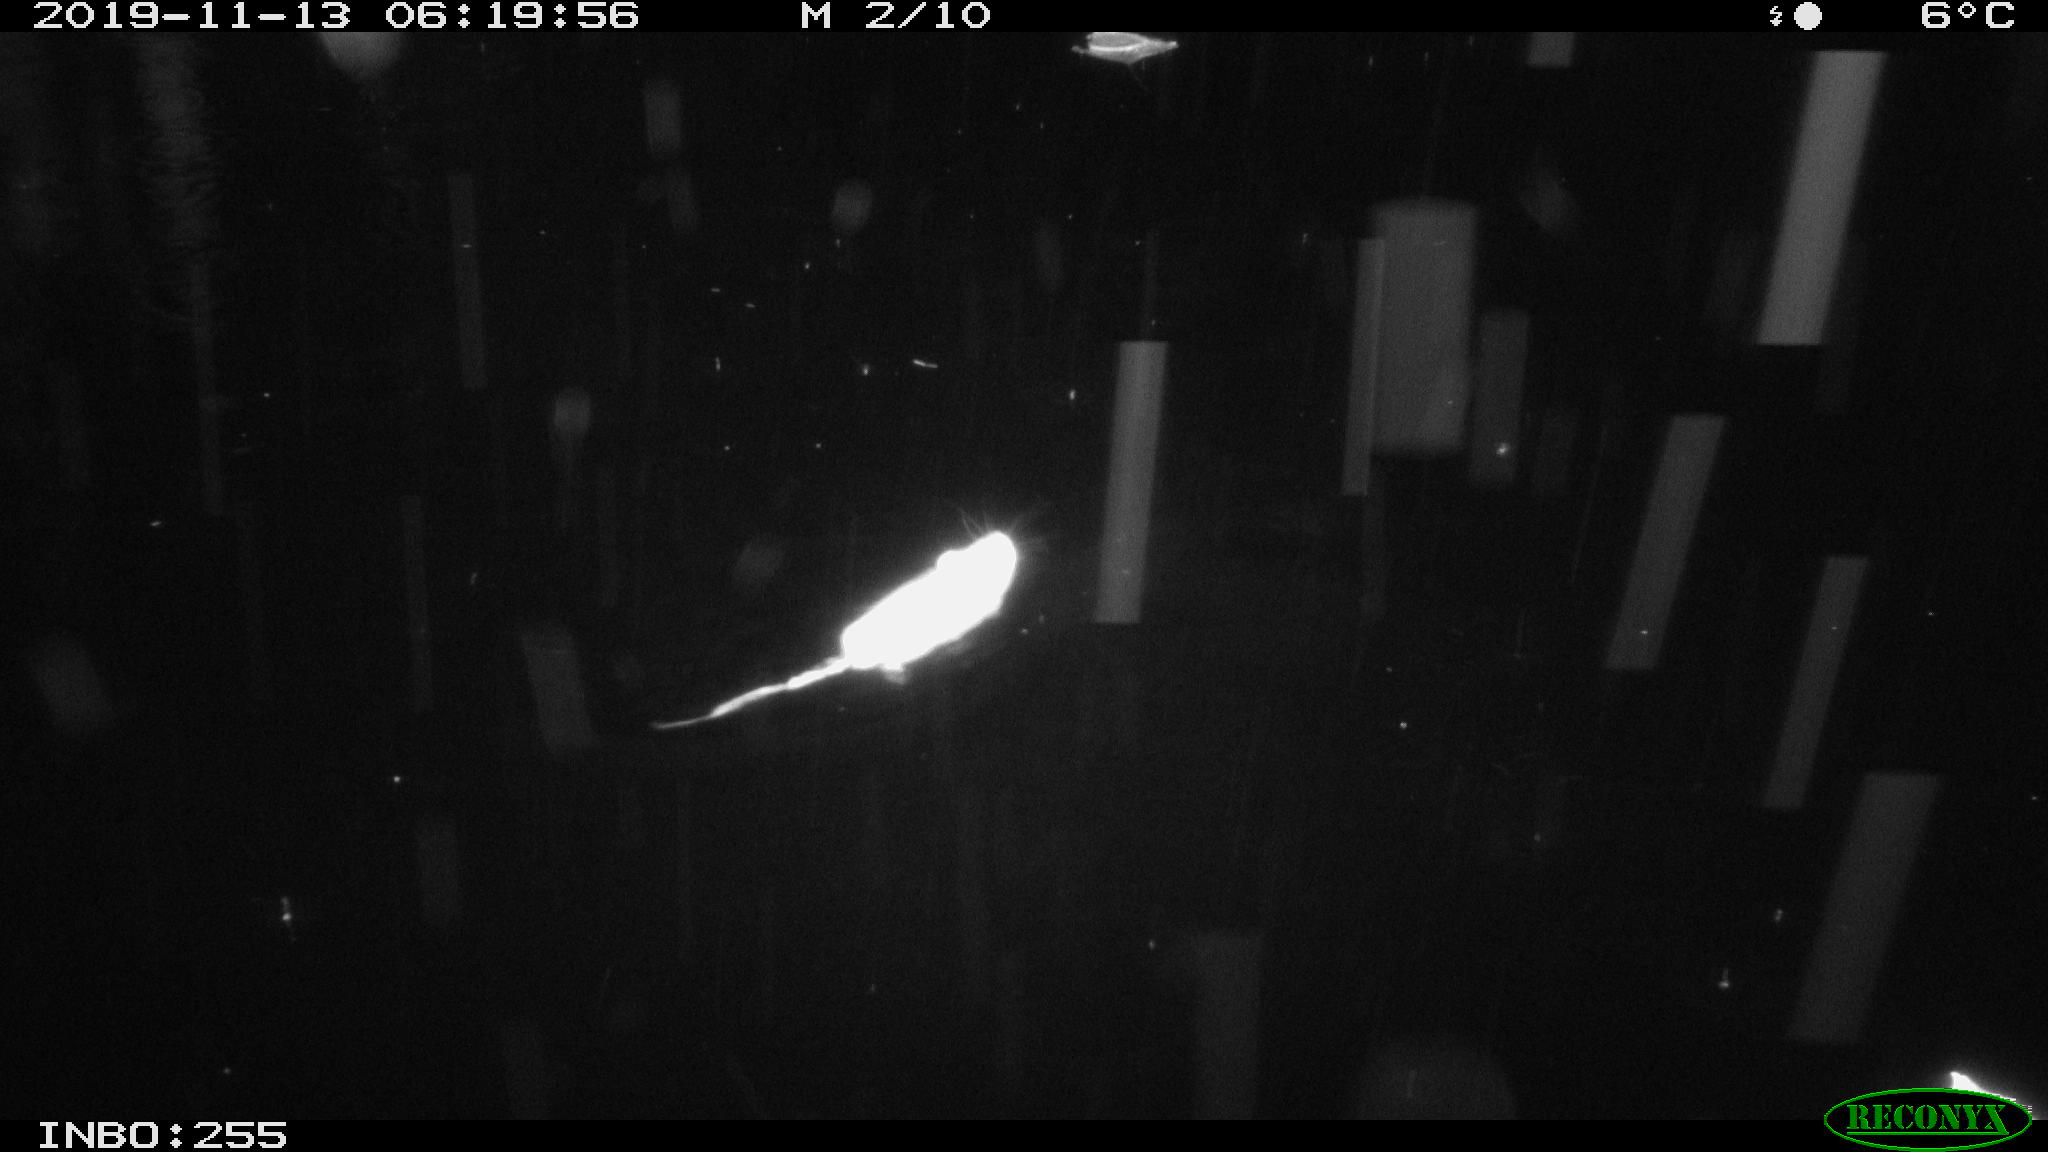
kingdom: Animalia
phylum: Chordata
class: Mammalia
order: Rodentia
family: Muridae
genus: Rattus
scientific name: Rattus norvegicus
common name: Brown rat
